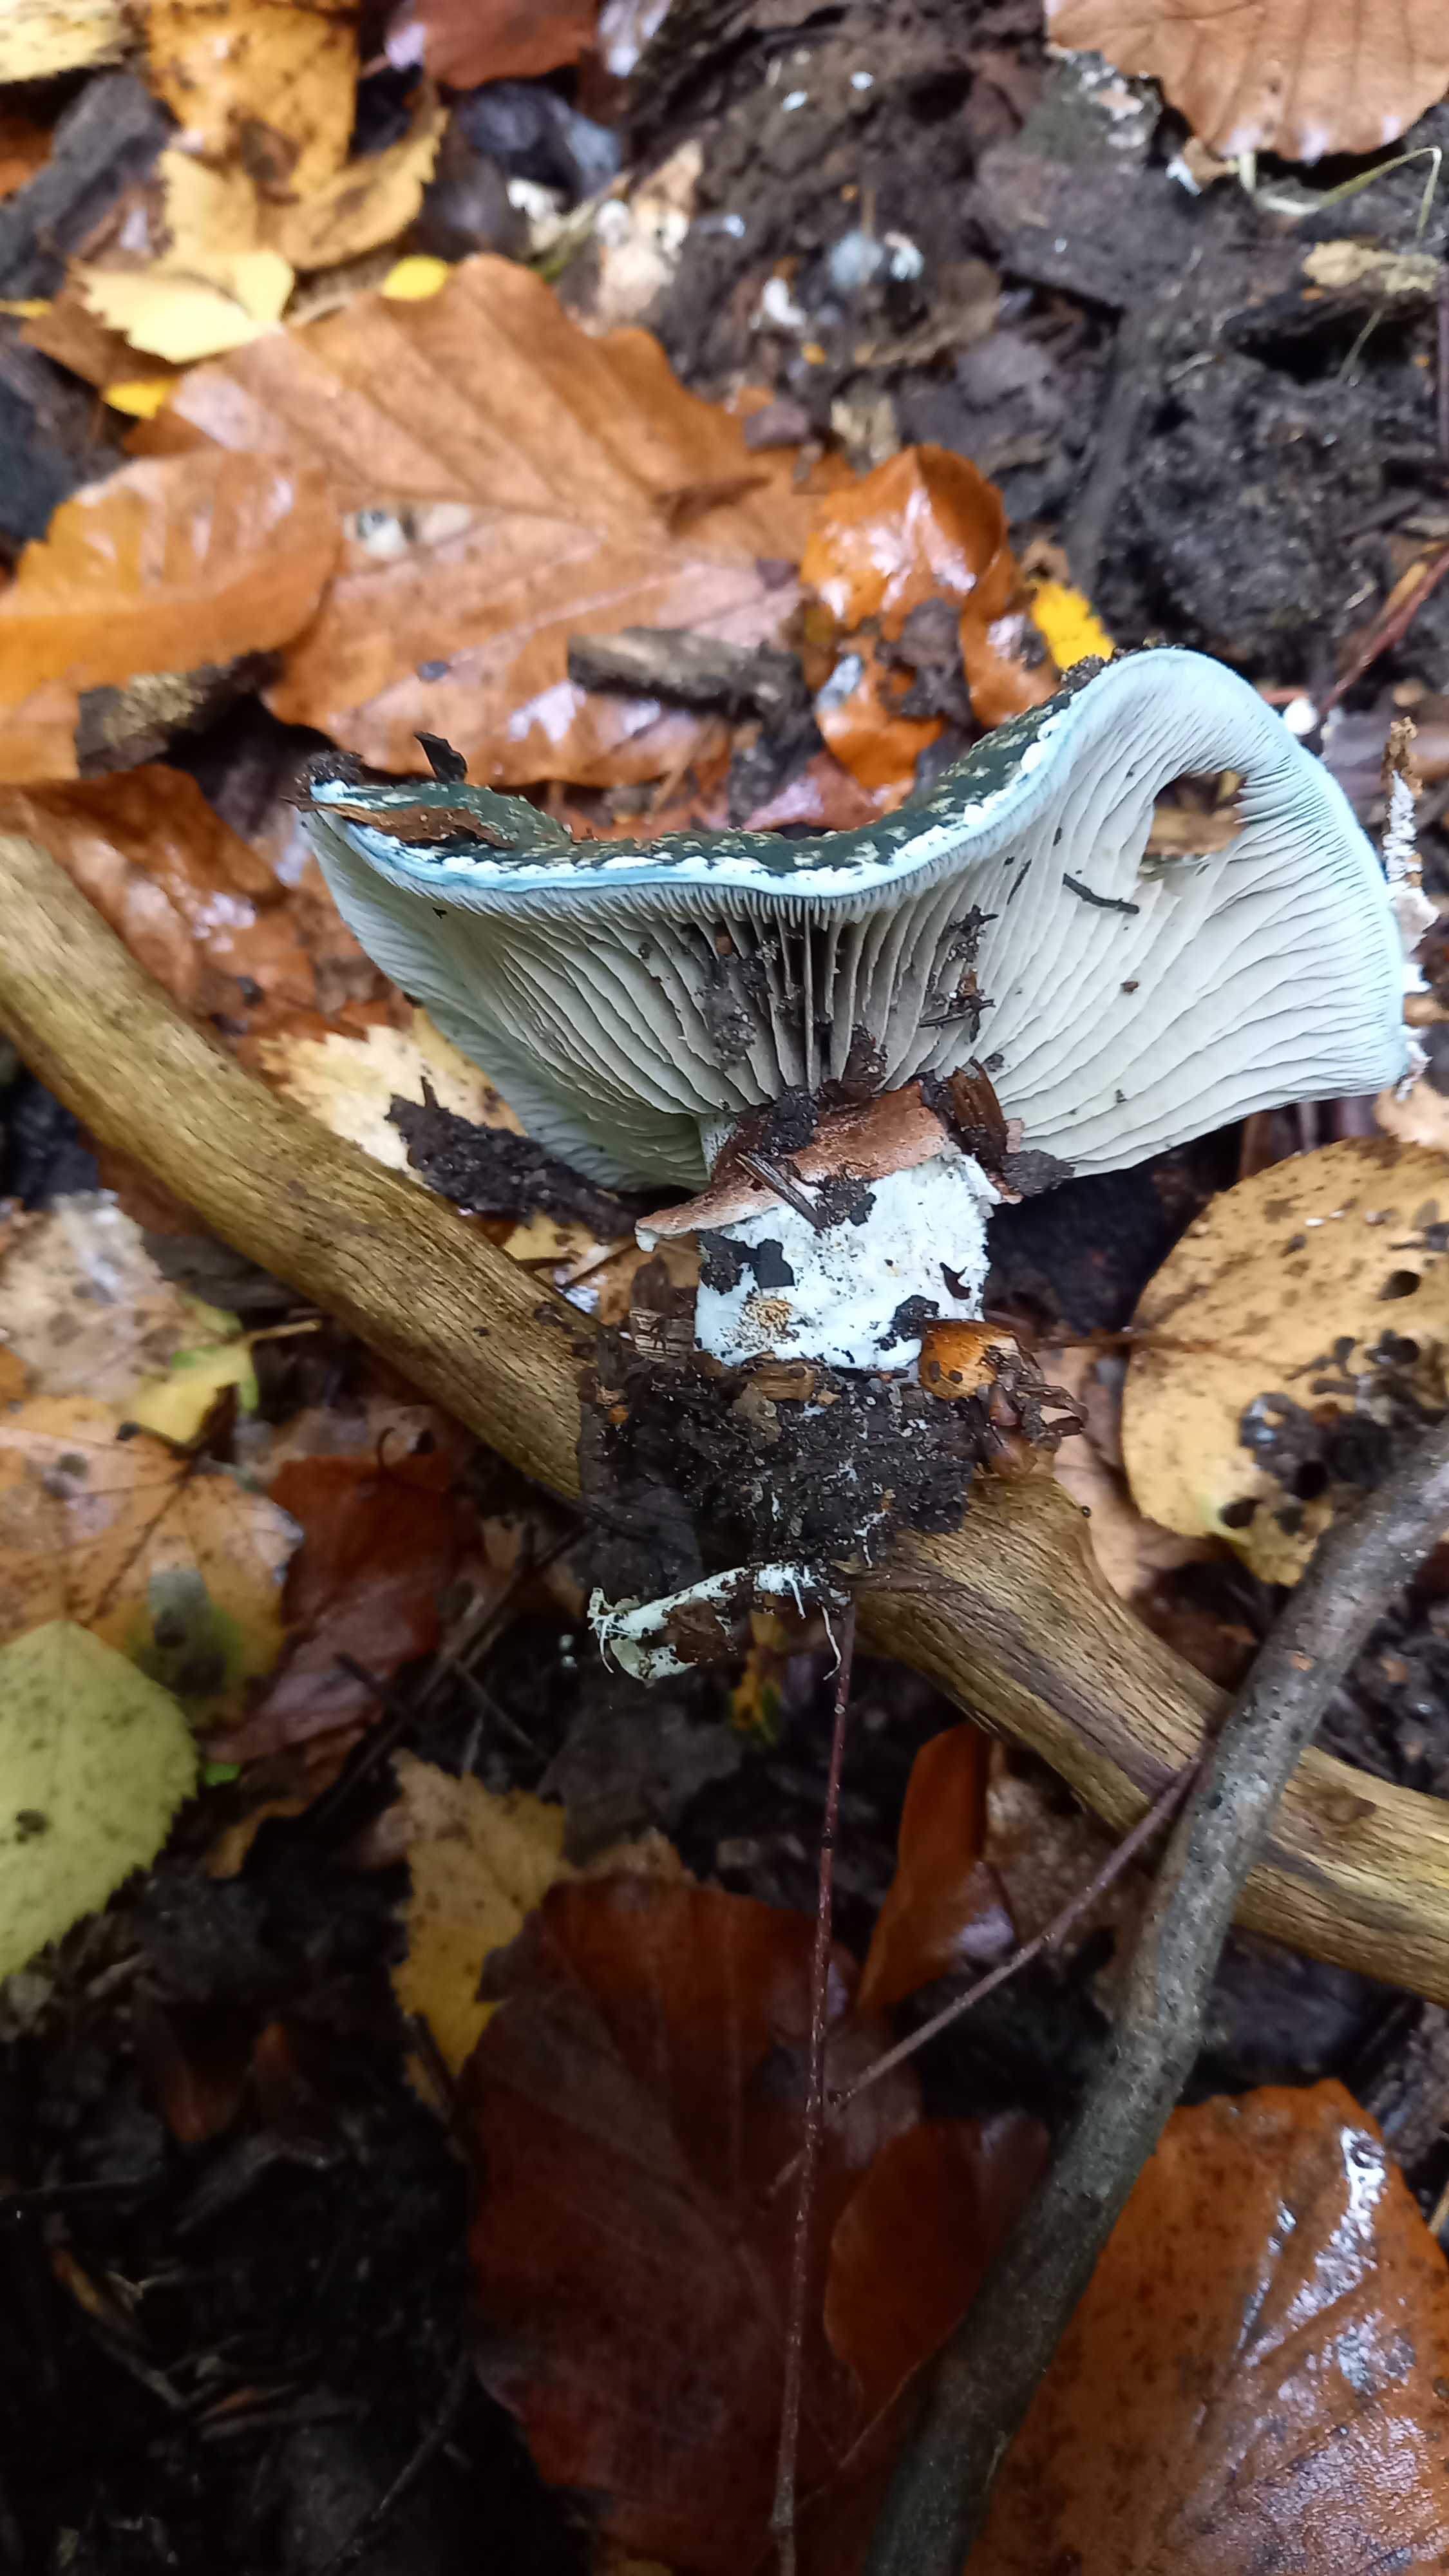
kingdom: Fungi
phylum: Basidiomycota
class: Agaricomycetes
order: Agaricales
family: Strophariaceae
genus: Stropharia
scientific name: Stropharia cyanea
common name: blågrøn bredblad
